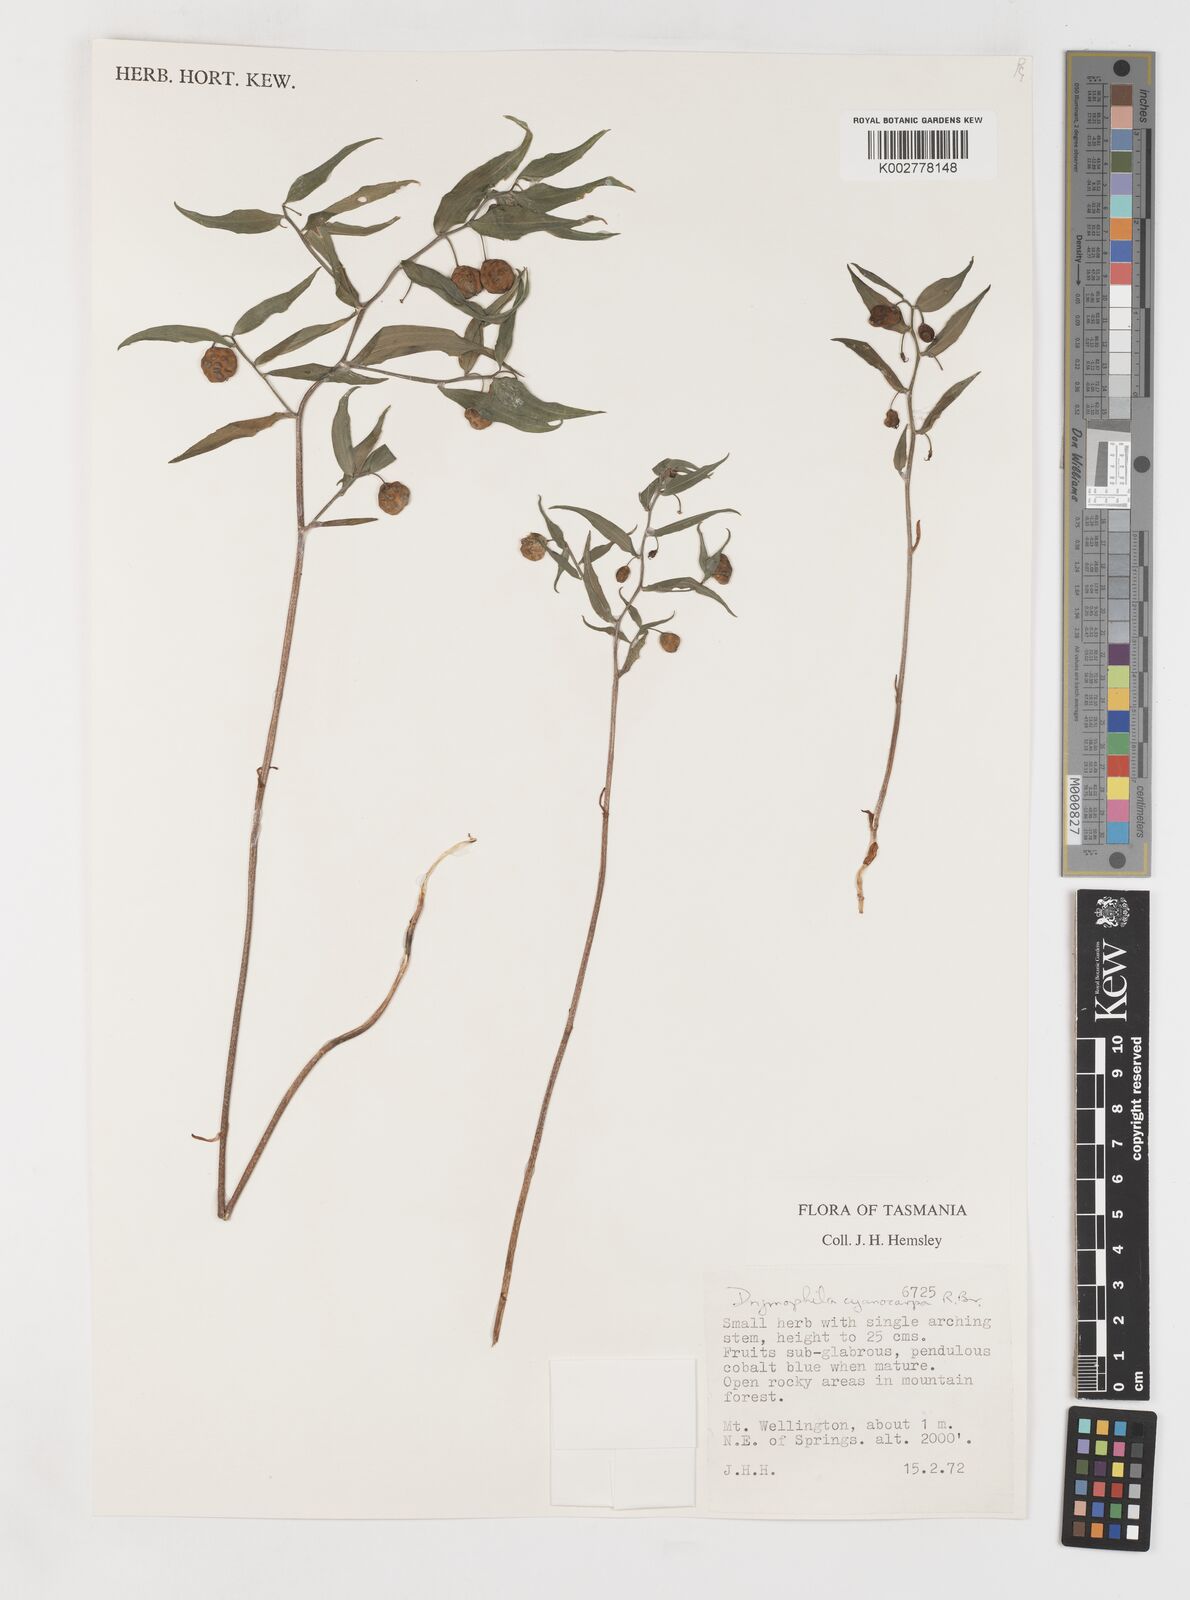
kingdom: Plantae
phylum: Tracheophyta
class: Liliopsida
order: Liliales
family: Alstroemeriaceae
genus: Drymophila
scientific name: Drymophila cyanocarpa
